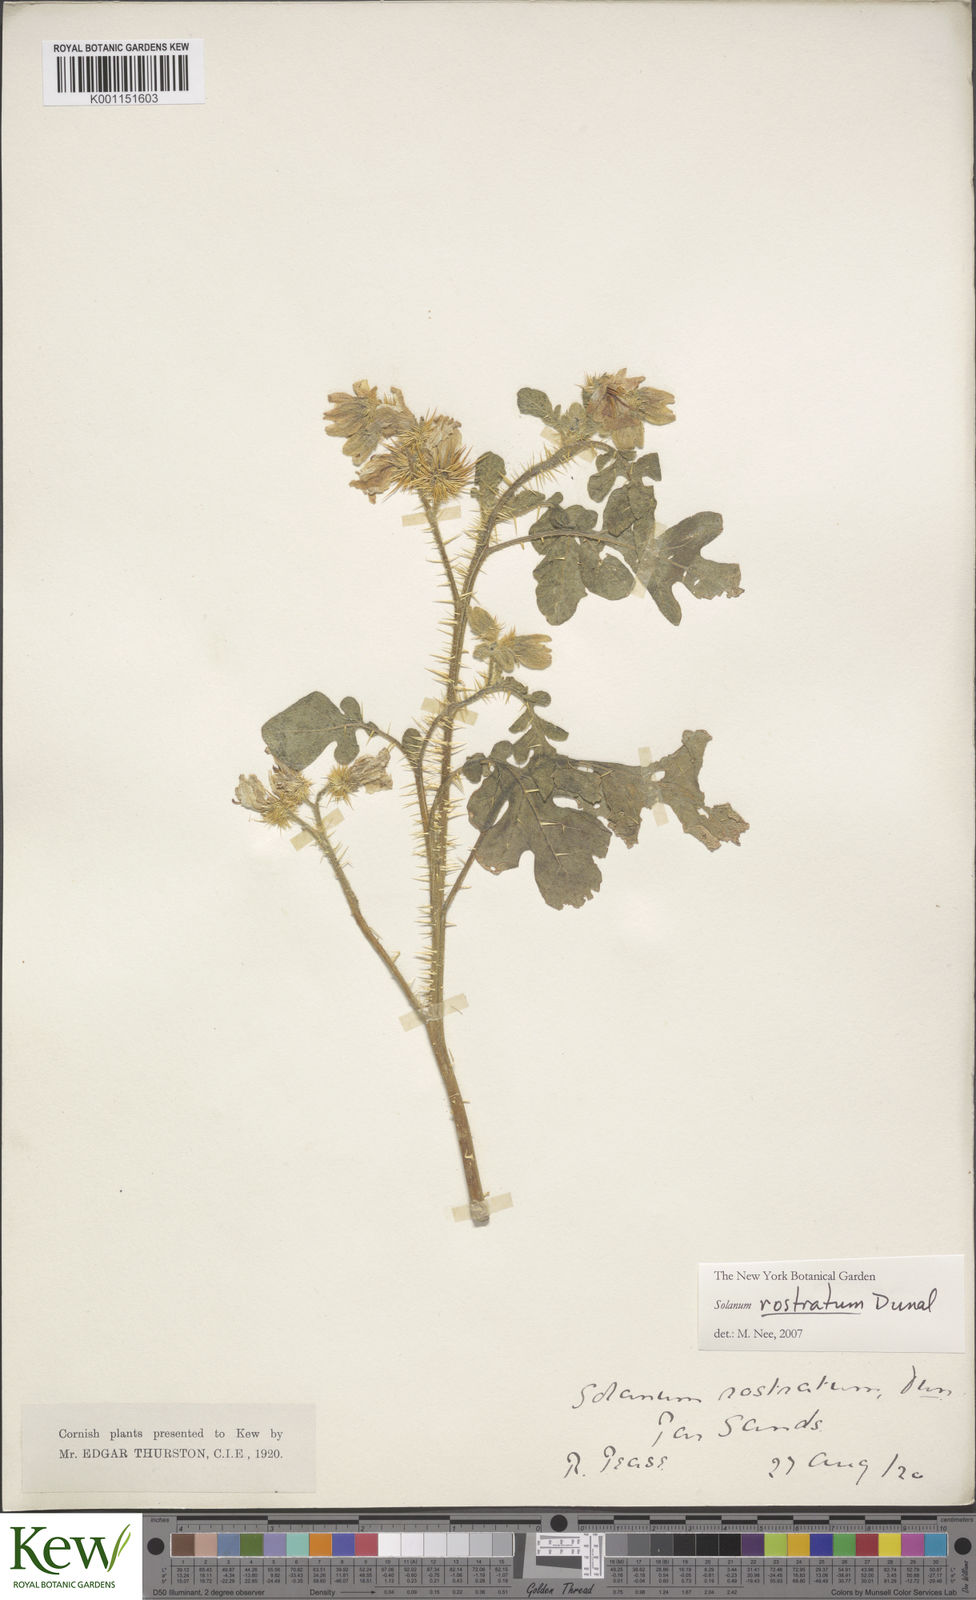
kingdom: Plantae
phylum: Tracheophyta
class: Magnoliopsida
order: Solanales
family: Solanaceae
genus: Solanum
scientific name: Solanum angustifolium
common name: Buffalobur nightshade
